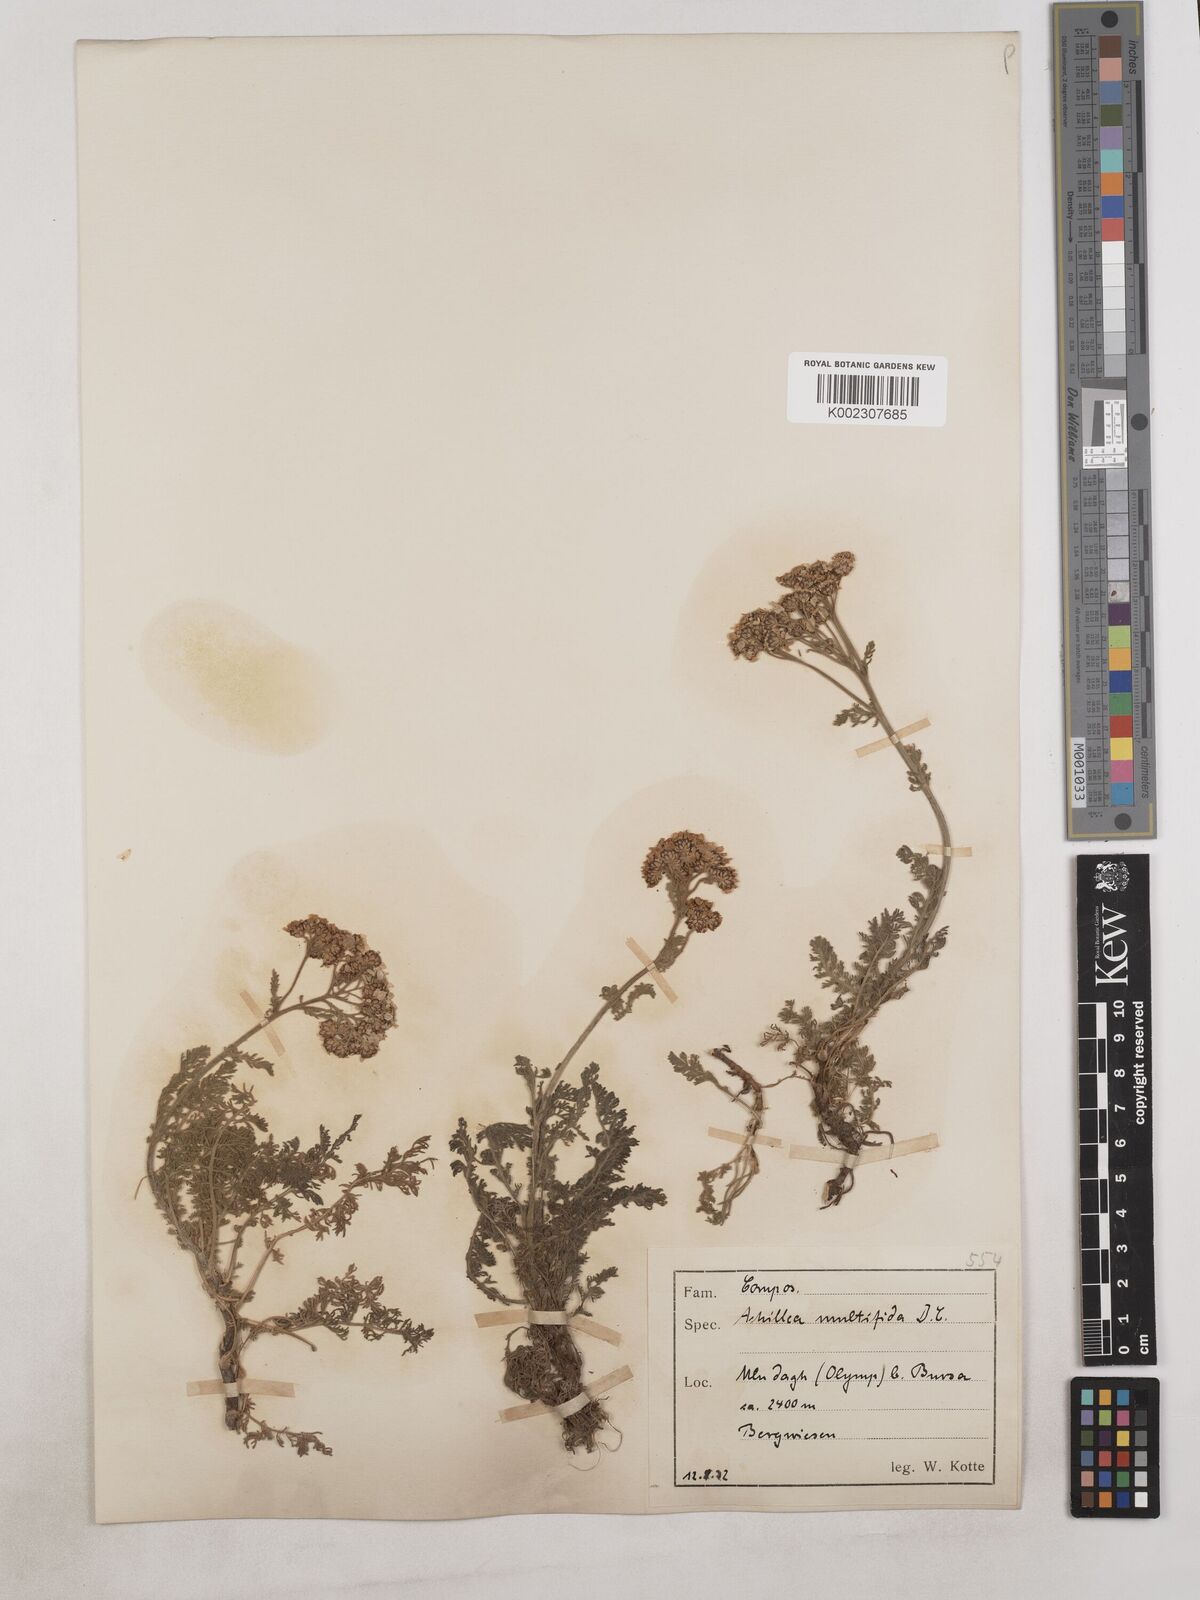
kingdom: Plantae
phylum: Tracheophyta
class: Magnoliopsida
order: Asterales
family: Asteraceae
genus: Achillea
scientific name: Achillea multifida
